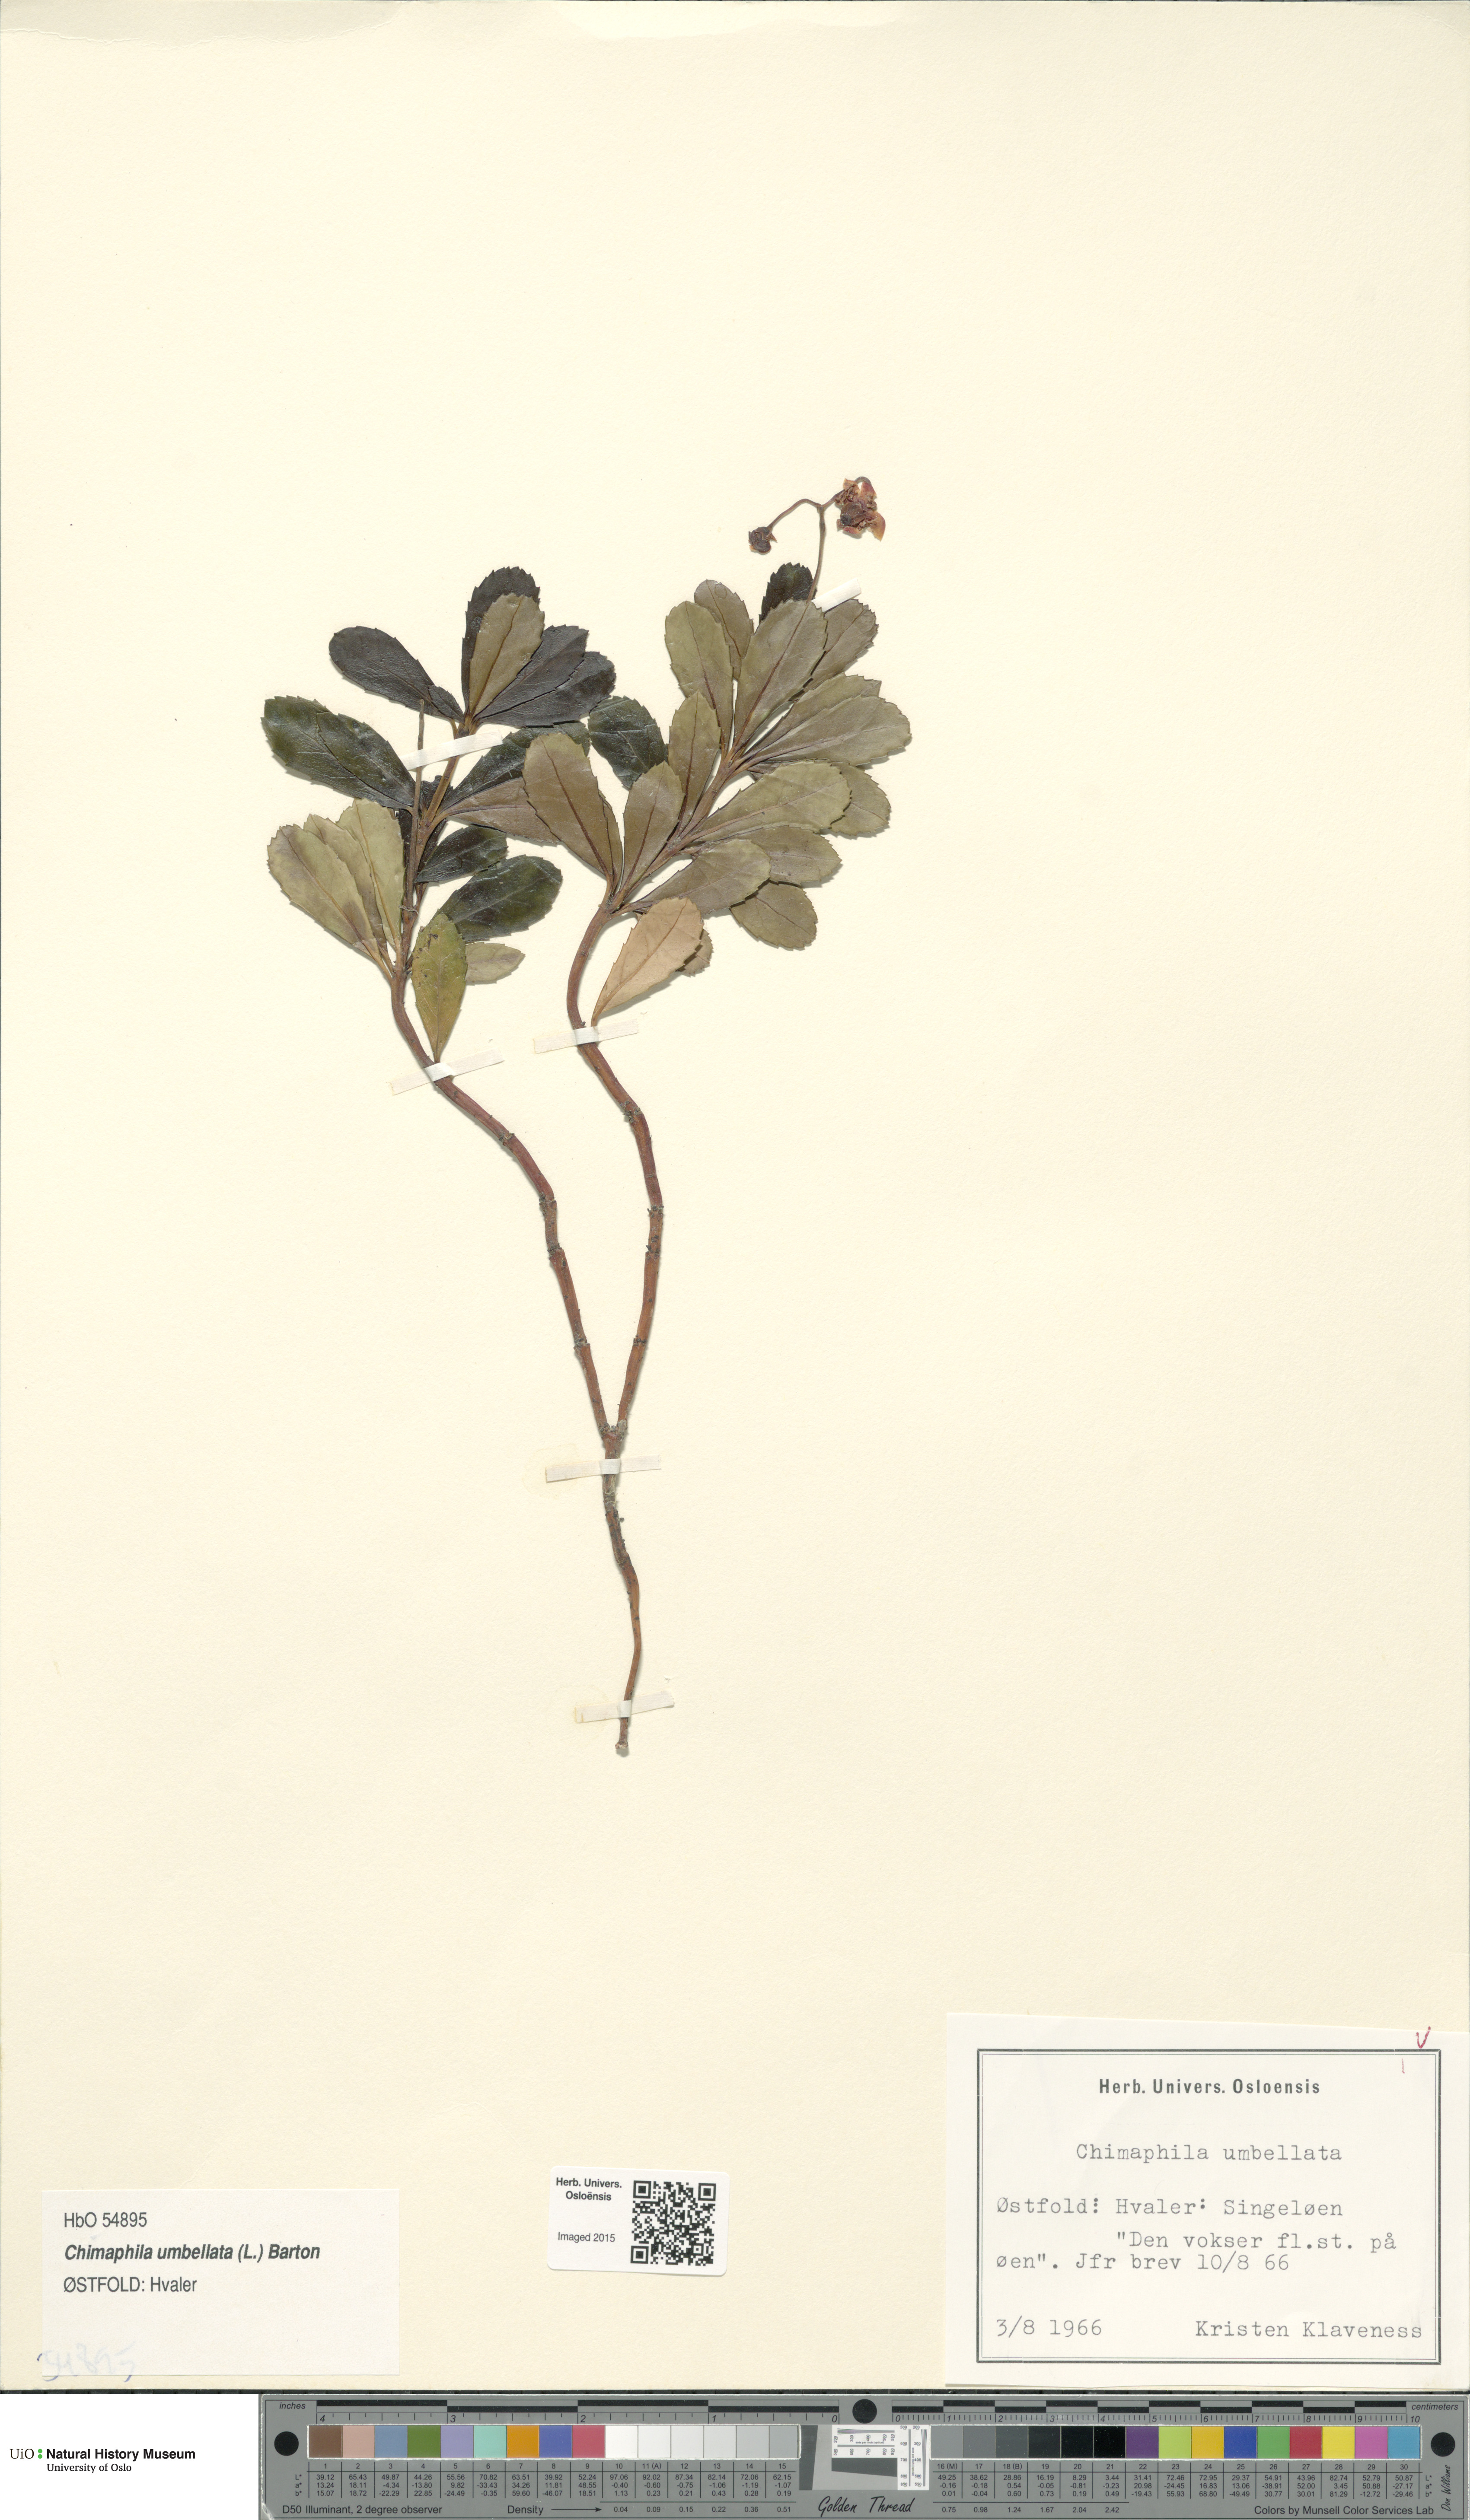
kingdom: Plantae
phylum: Tracheophyta
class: Magnoliopsida
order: Ericales
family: Ericaceae
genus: Chimaphila
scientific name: Chimaphila umbellata
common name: Pipsissewa
